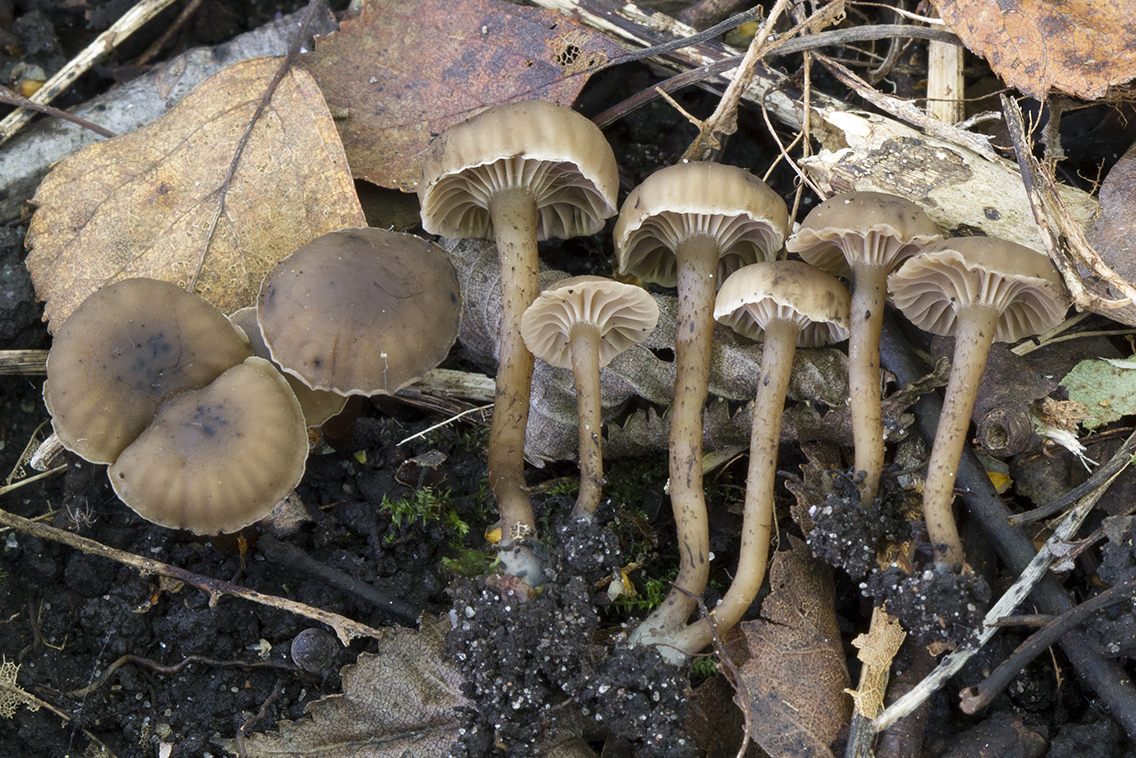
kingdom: Fungi
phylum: Basidiomycota
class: Agaricomycetes
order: Agaricales
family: Clavariaceae
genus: Hodophilus
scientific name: Hodophilus foetens
